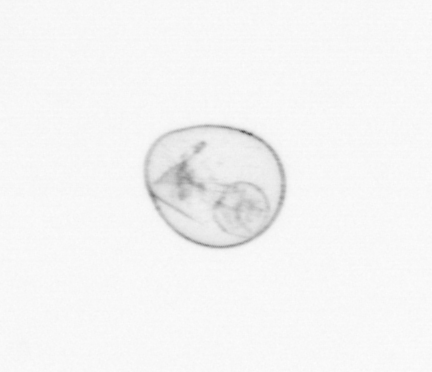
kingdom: Chromista
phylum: Myzozoa
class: Dinophyceae
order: Noctilucales
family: Noctilucaceae
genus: Noctiluca
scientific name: Noctiluca scintillans
